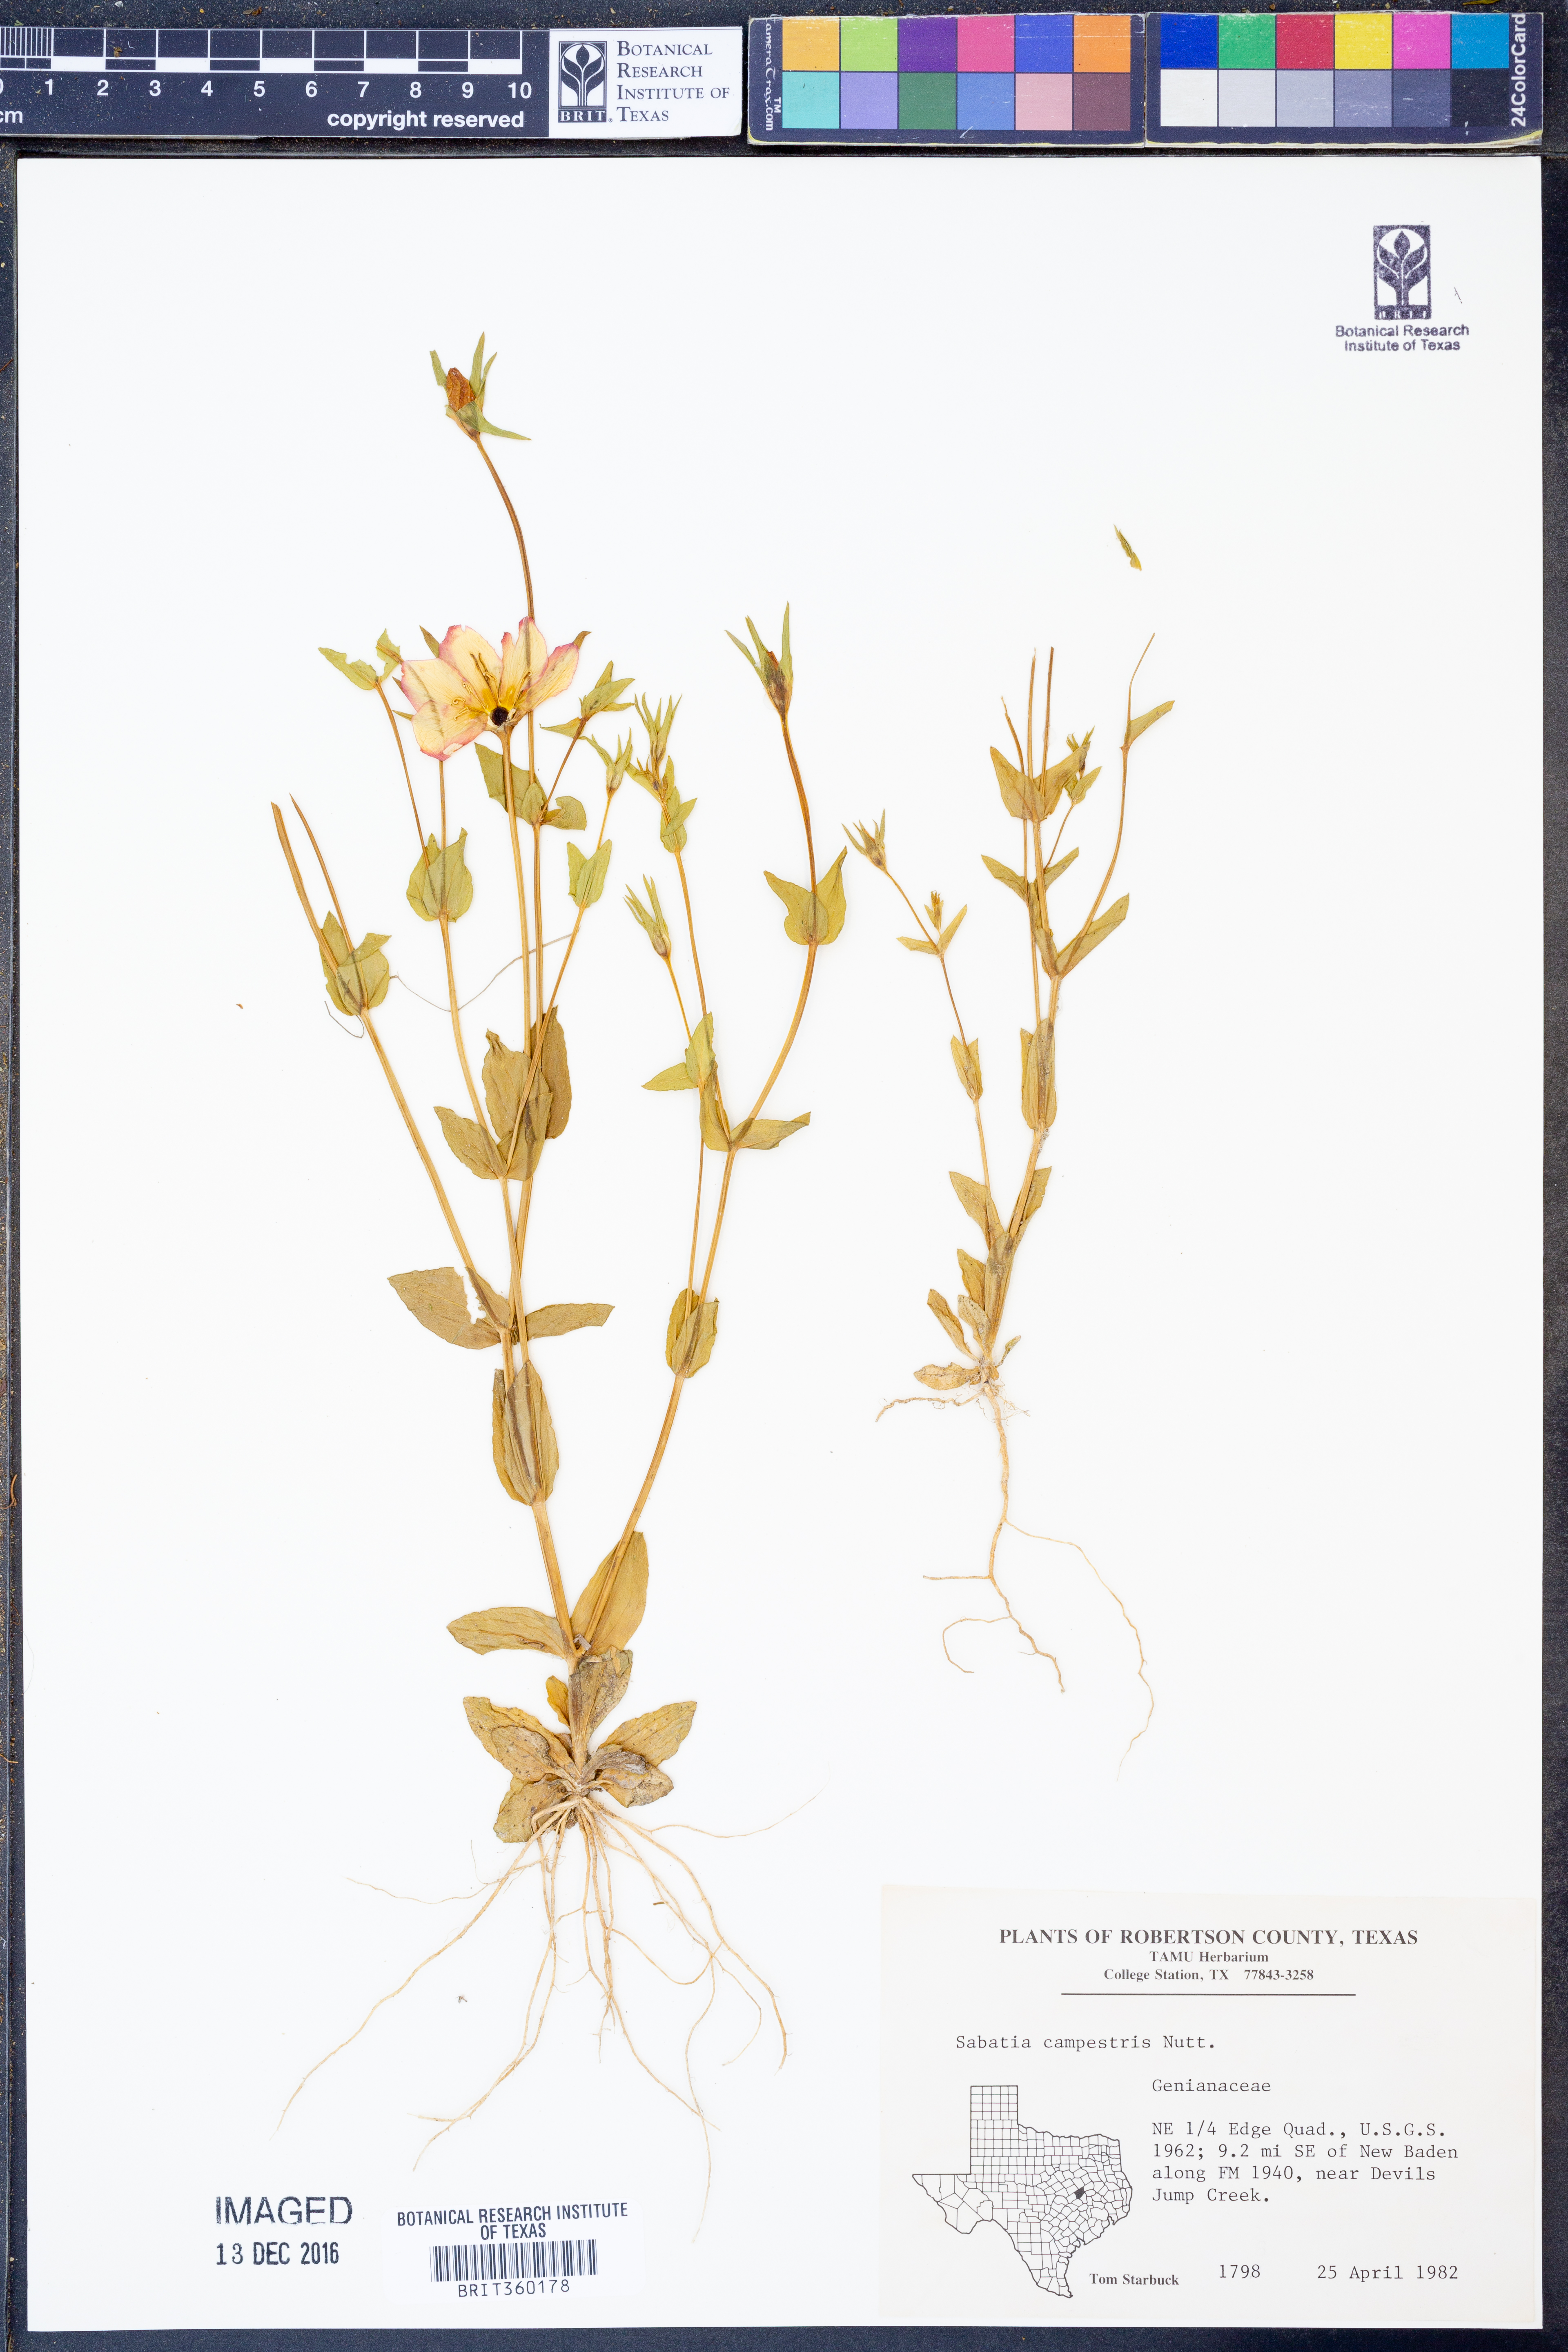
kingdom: Plantae
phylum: Tracheophyta
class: Magnoliopsida
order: Gentianales
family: Gentianaceae
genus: Sabatia
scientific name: Sabatia campestris
